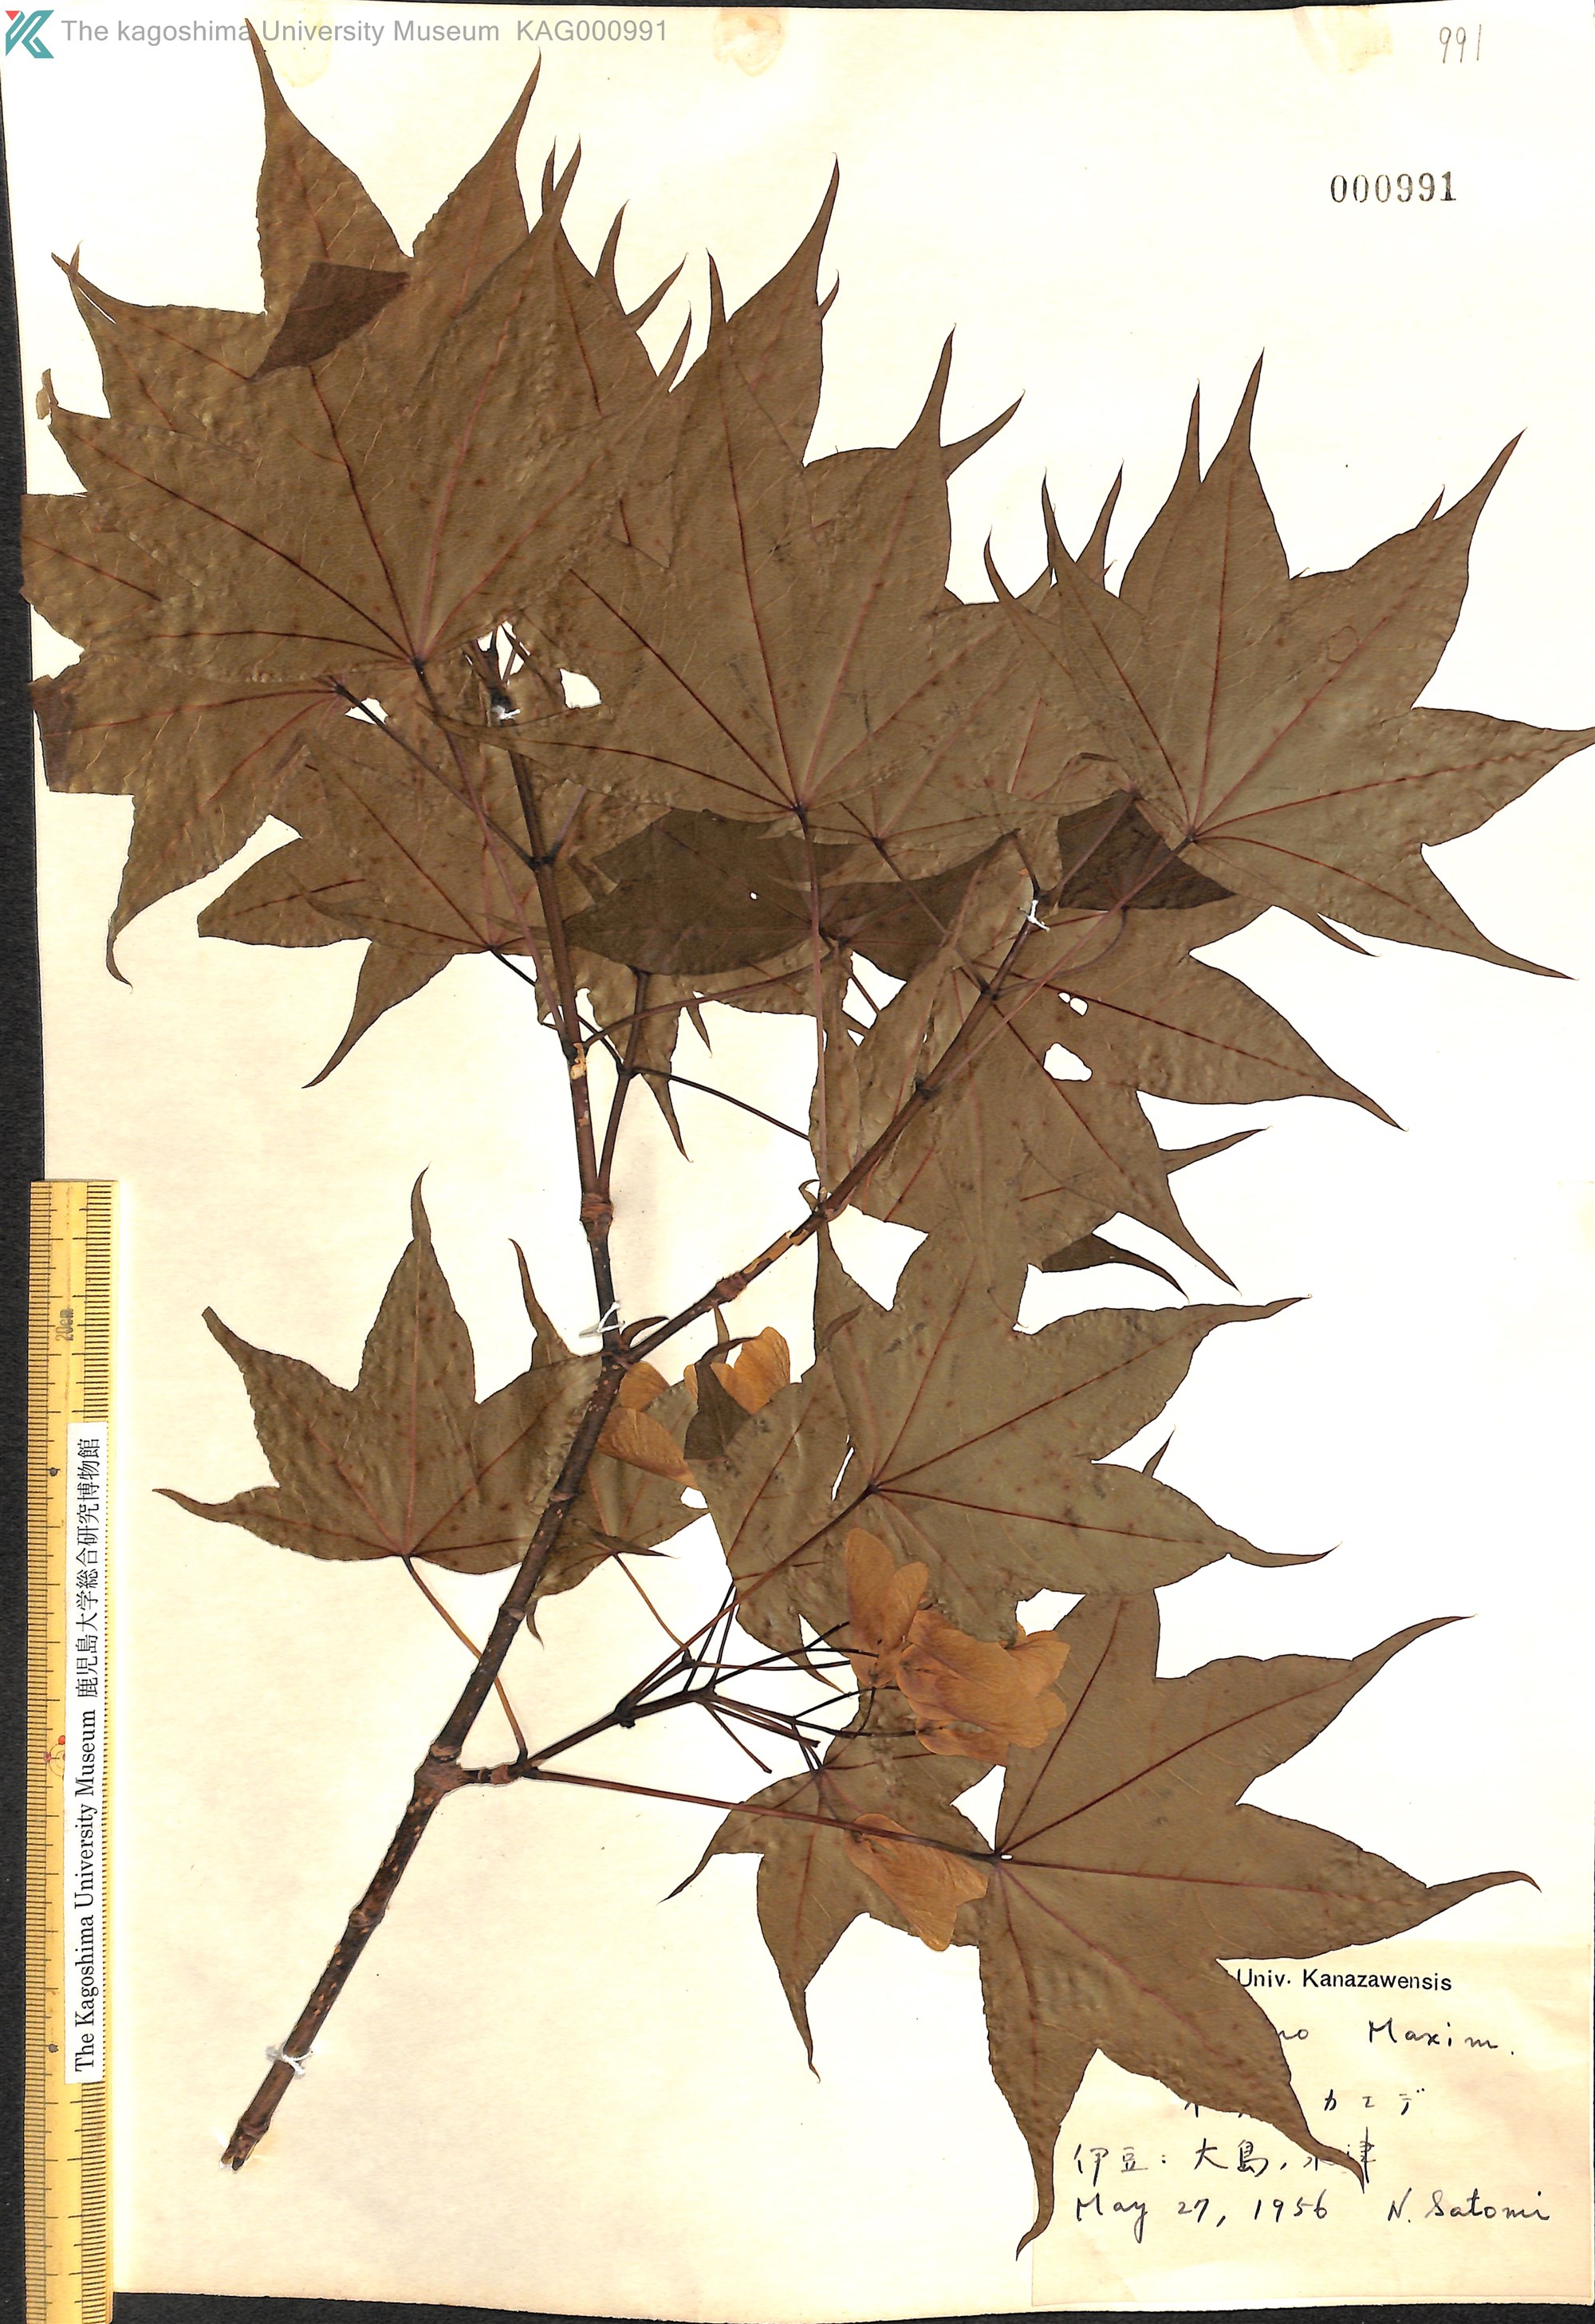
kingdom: Plantae
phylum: Tracheophyta
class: Magnoliopsida
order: Sapindales
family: Sapindaceae
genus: Acer
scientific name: Acer pictum
